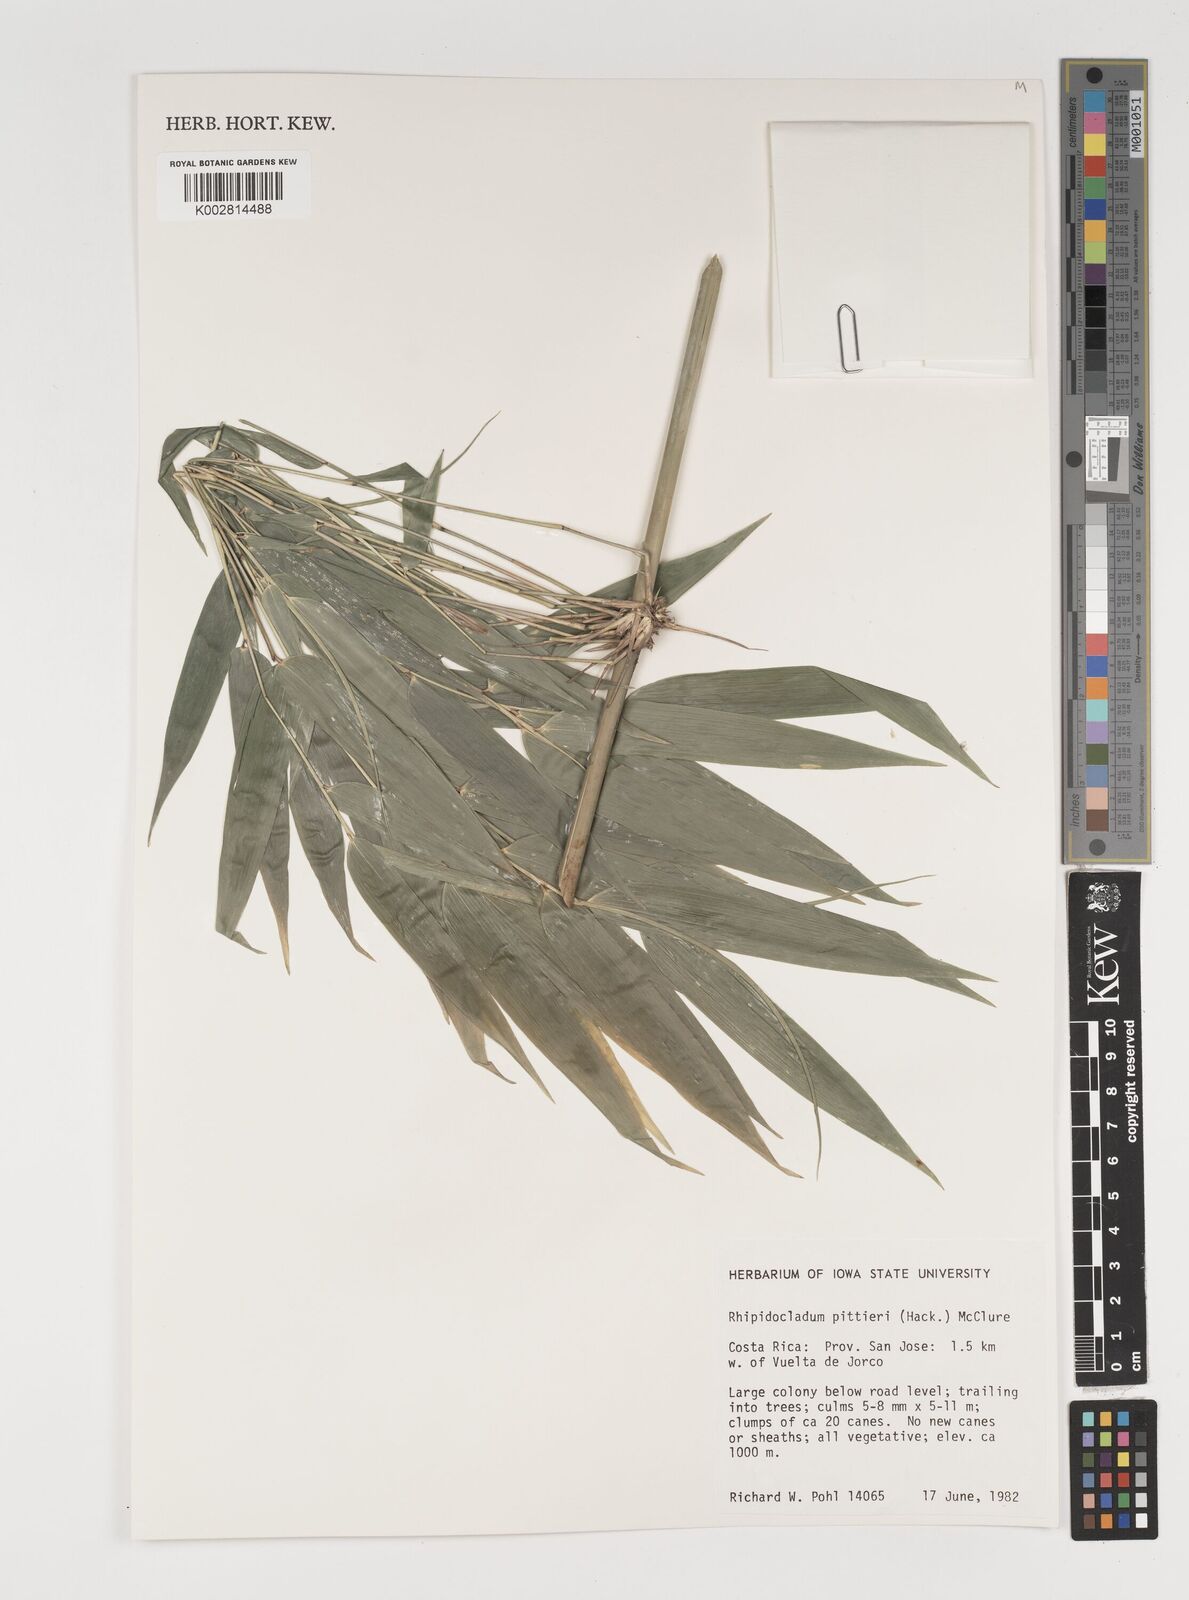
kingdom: Plantae
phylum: Tracheophyta
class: Liliopsida
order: Poales
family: Poaceae
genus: Rhipidocladum
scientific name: Rhipidocladum pittieri
